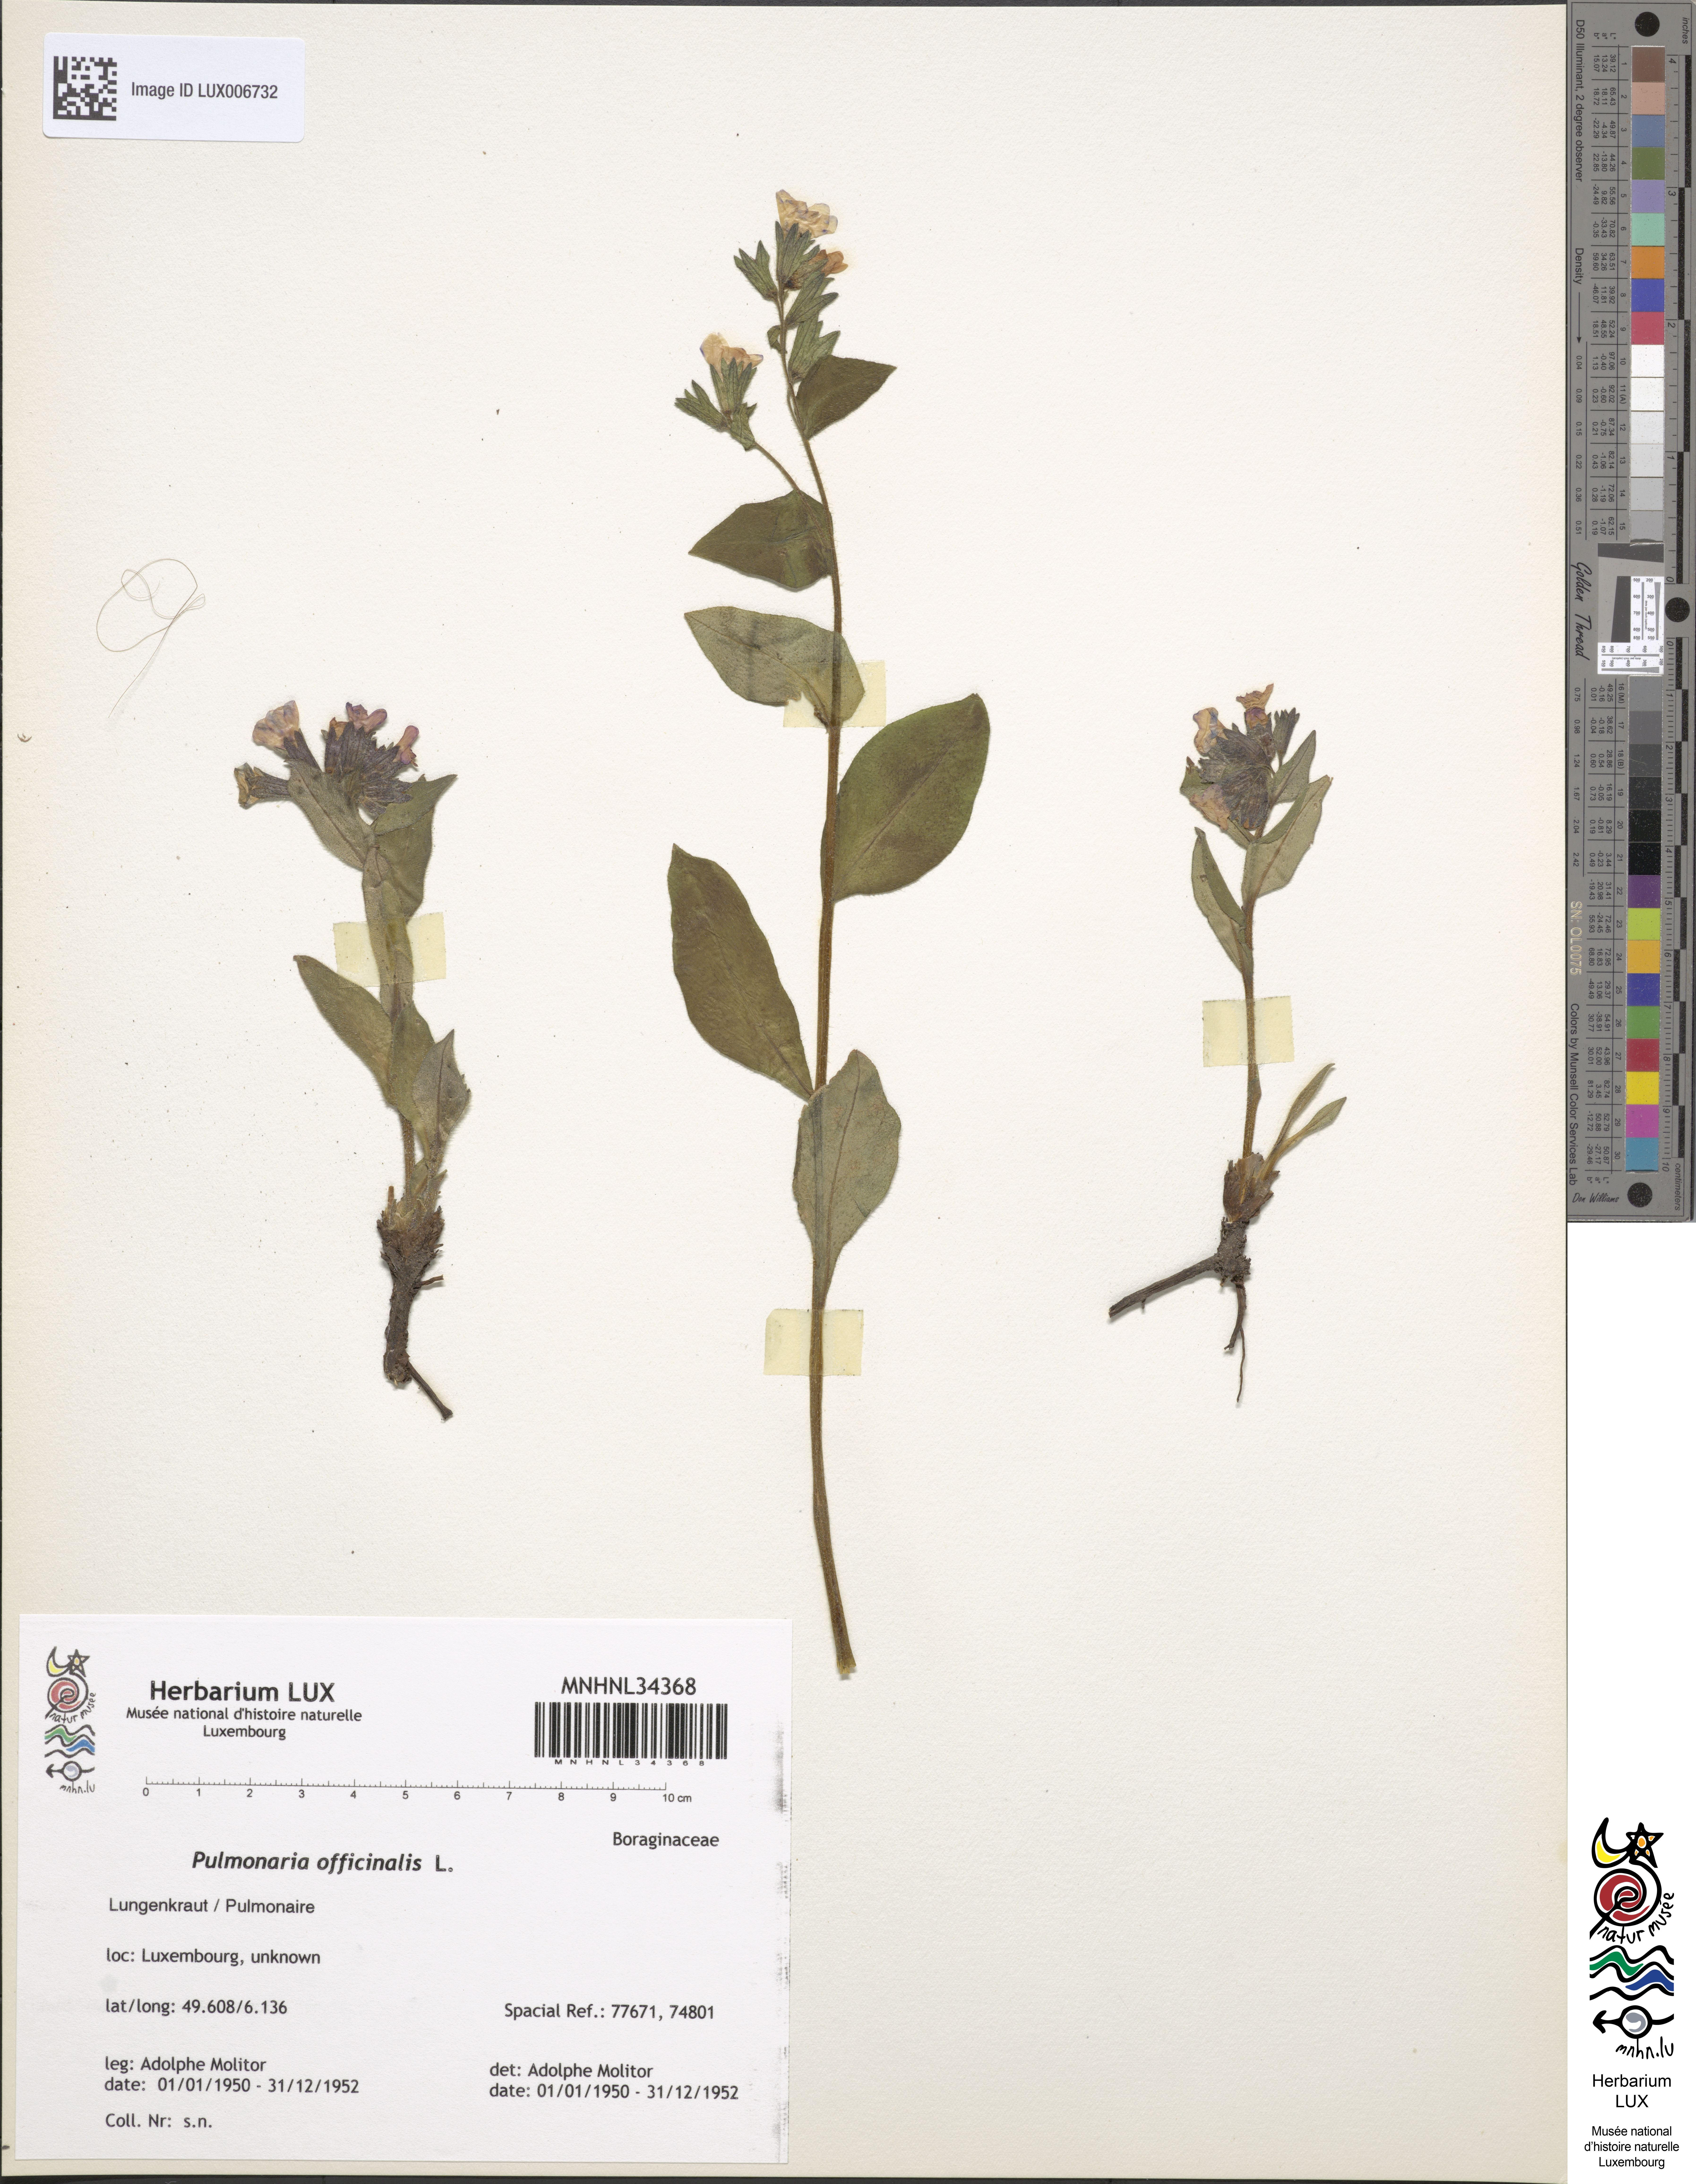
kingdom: Plantae
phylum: Tracheophyta
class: Magnoliopsida
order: Boraginales
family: Boraginaceae
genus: Pulmonaria
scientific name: Pulmonaria officinalis
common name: Lungwort
